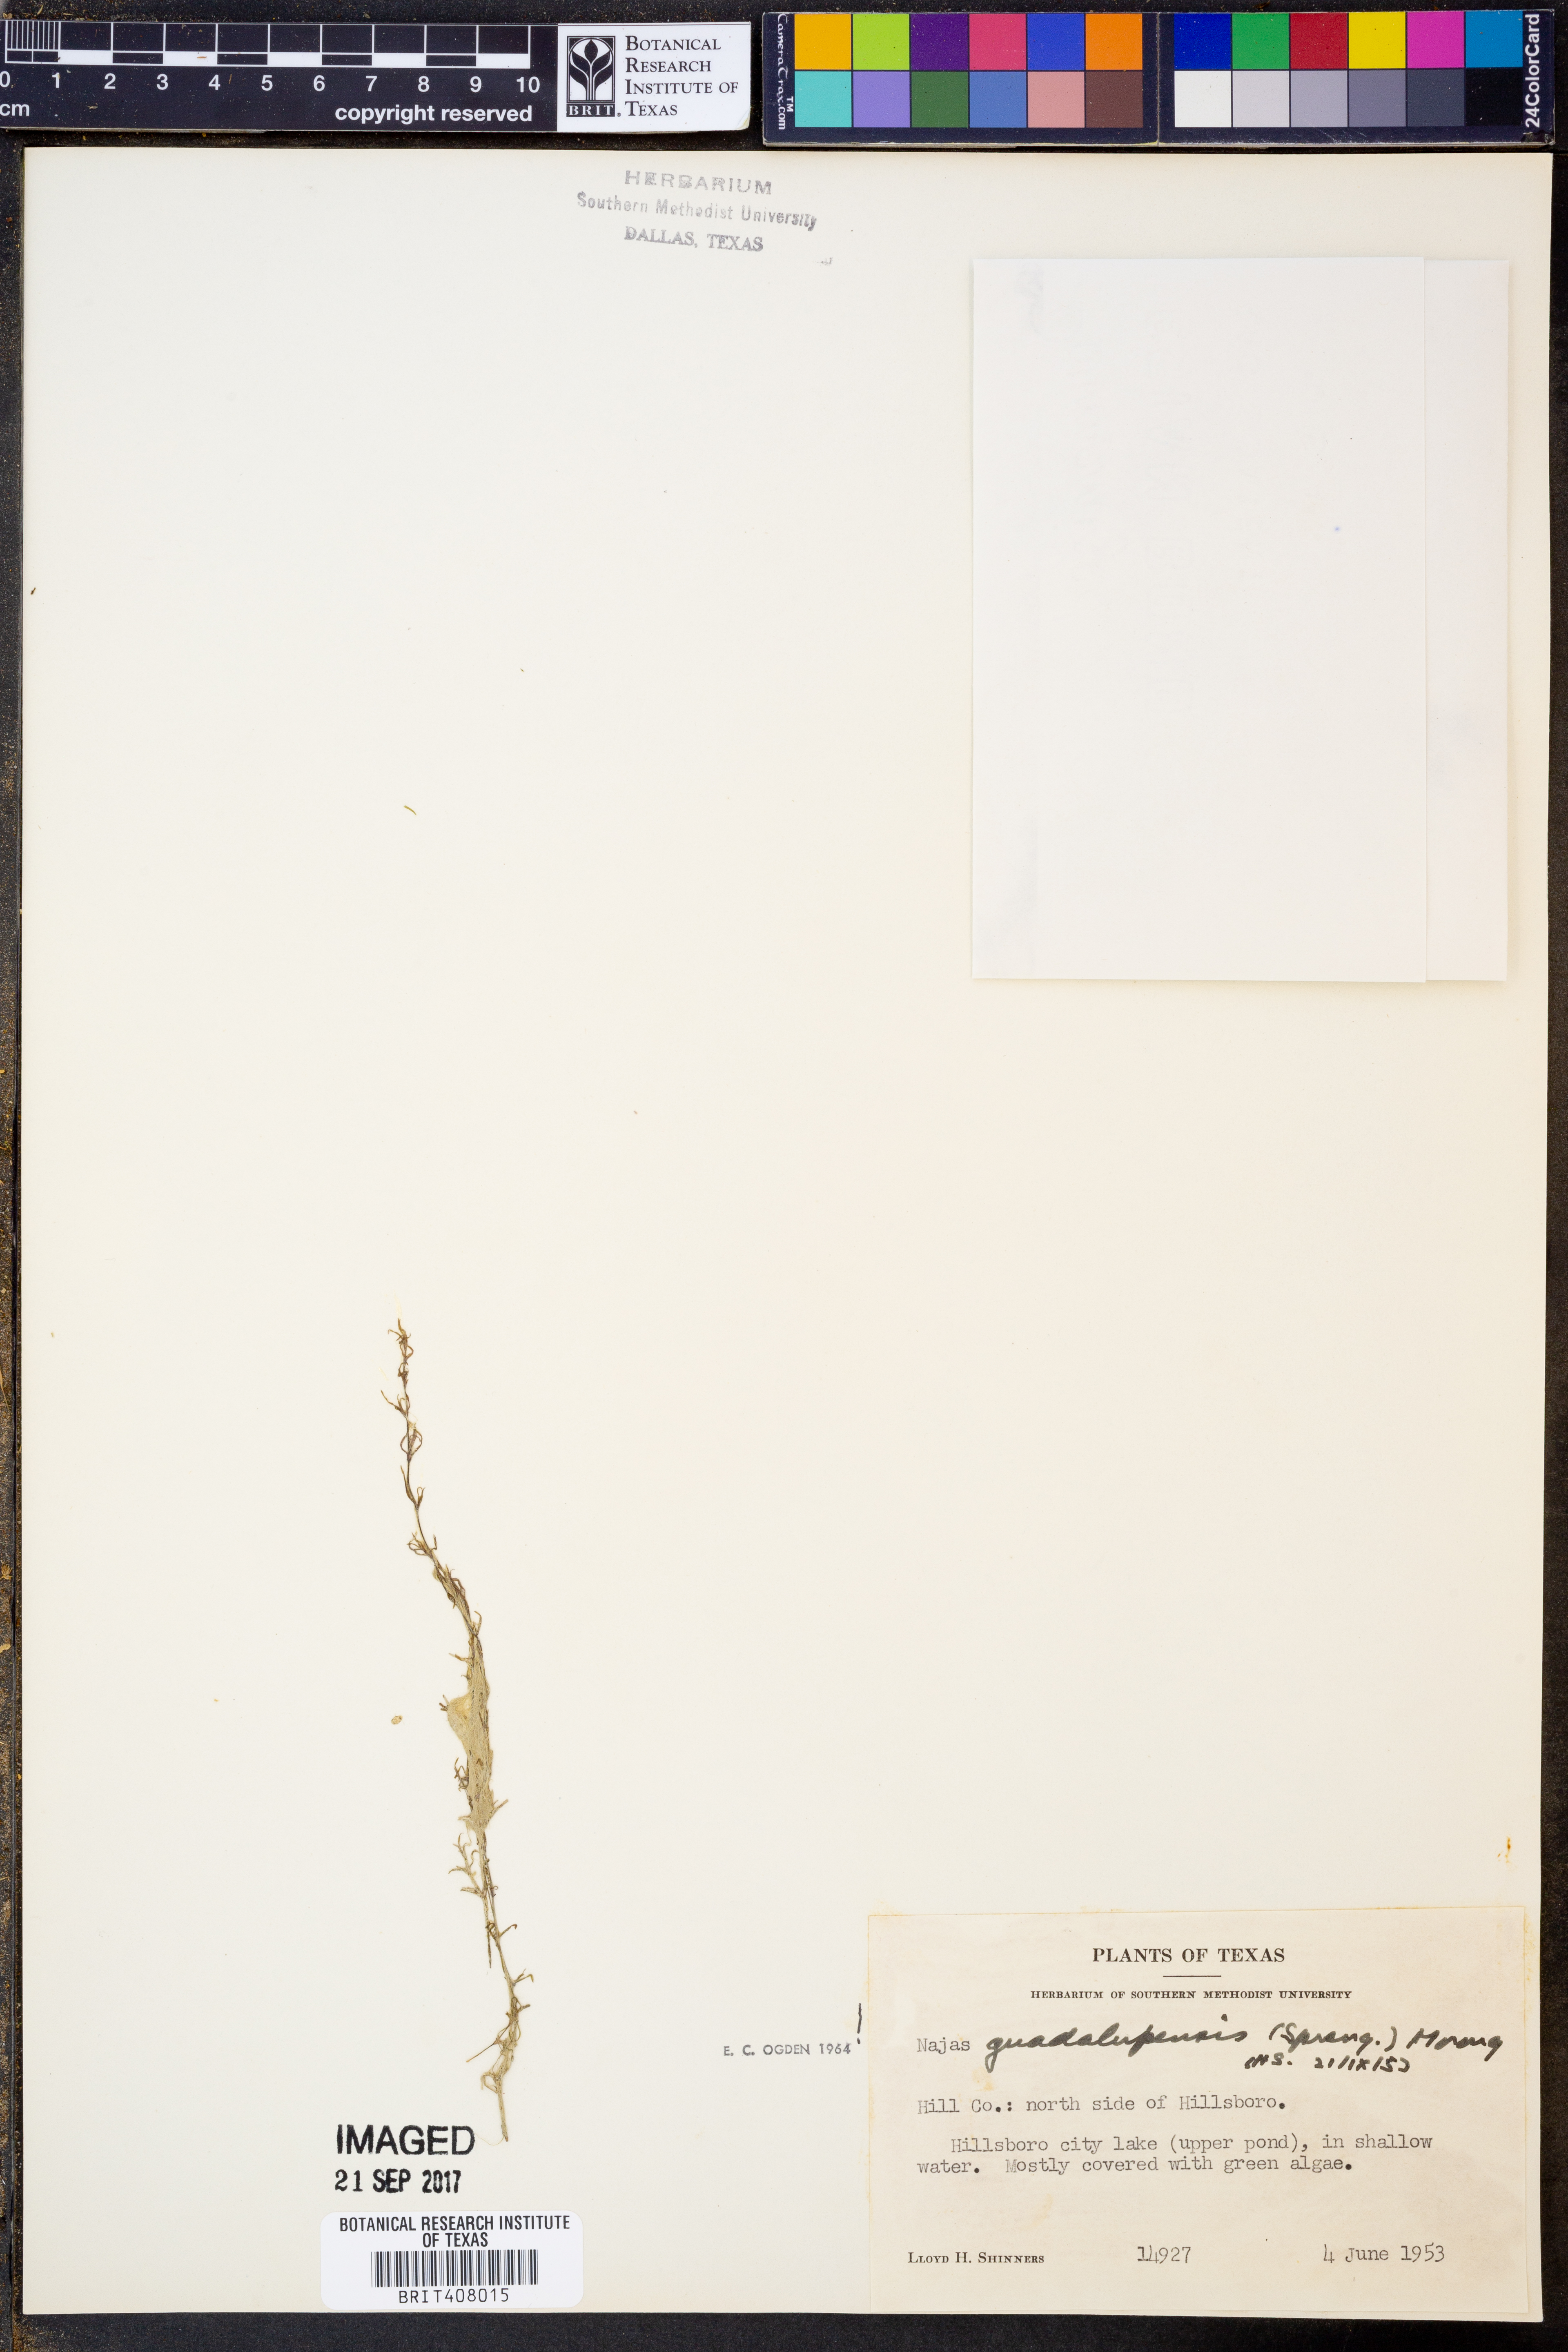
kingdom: Plantae
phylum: Tracheophyta
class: Liliopsida
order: Alismatales
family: Hydrocharitaceae
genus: Najas
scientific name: Najas guadalupensis
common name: Southern naiad
